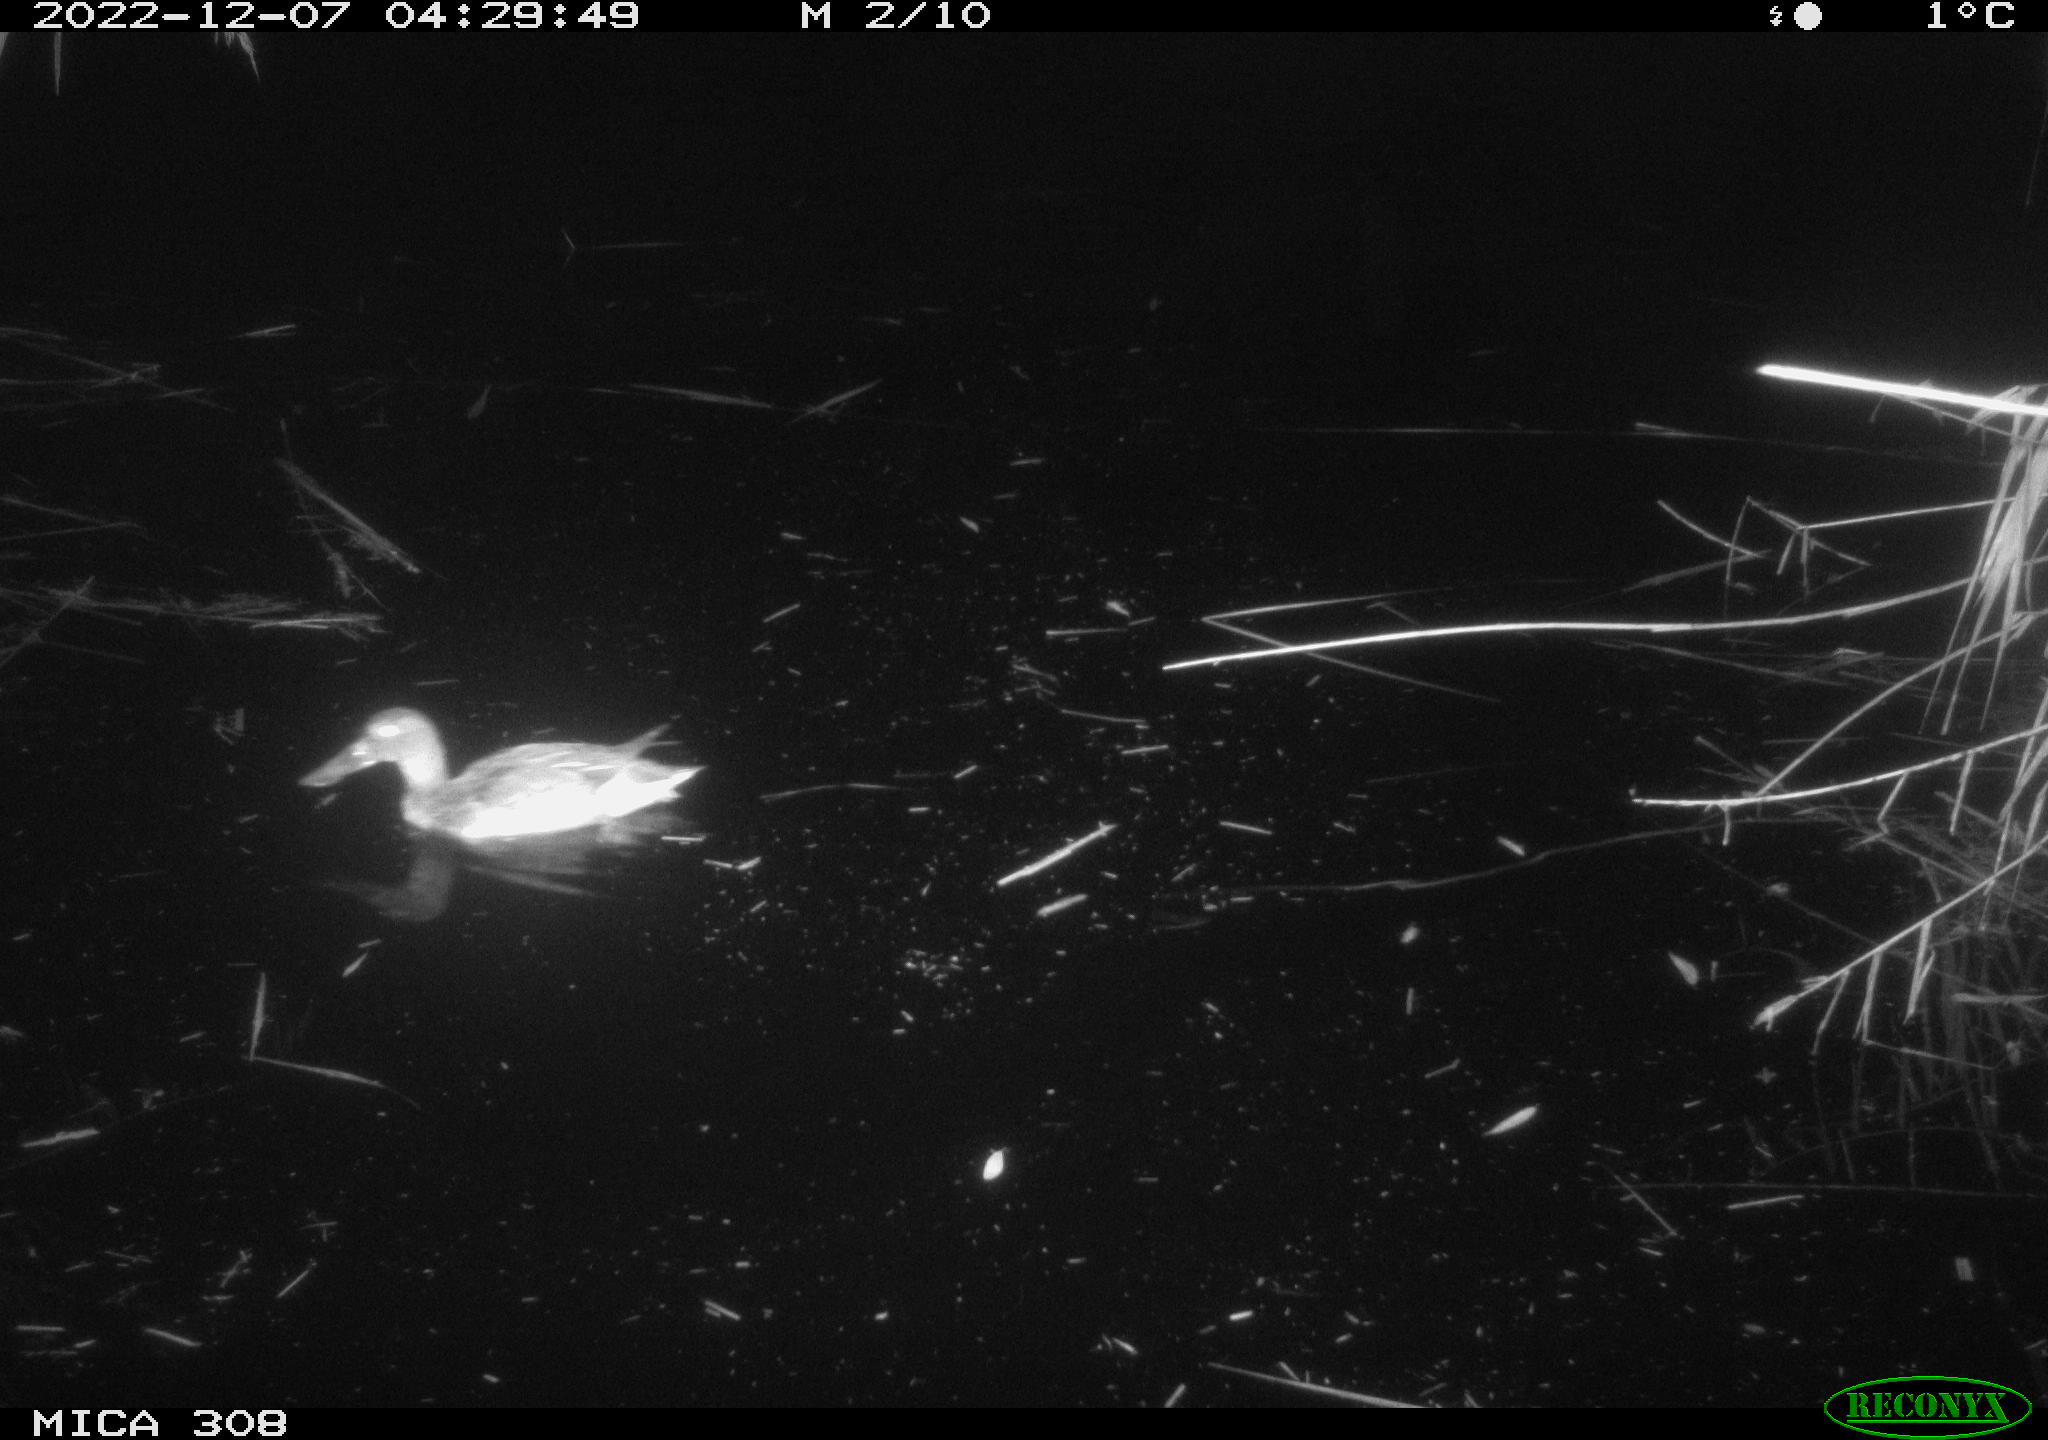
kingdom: Animalia
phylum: Chordata
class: Aves
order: Anseriformes
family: Anatidae
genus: Anas
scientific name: Anas
